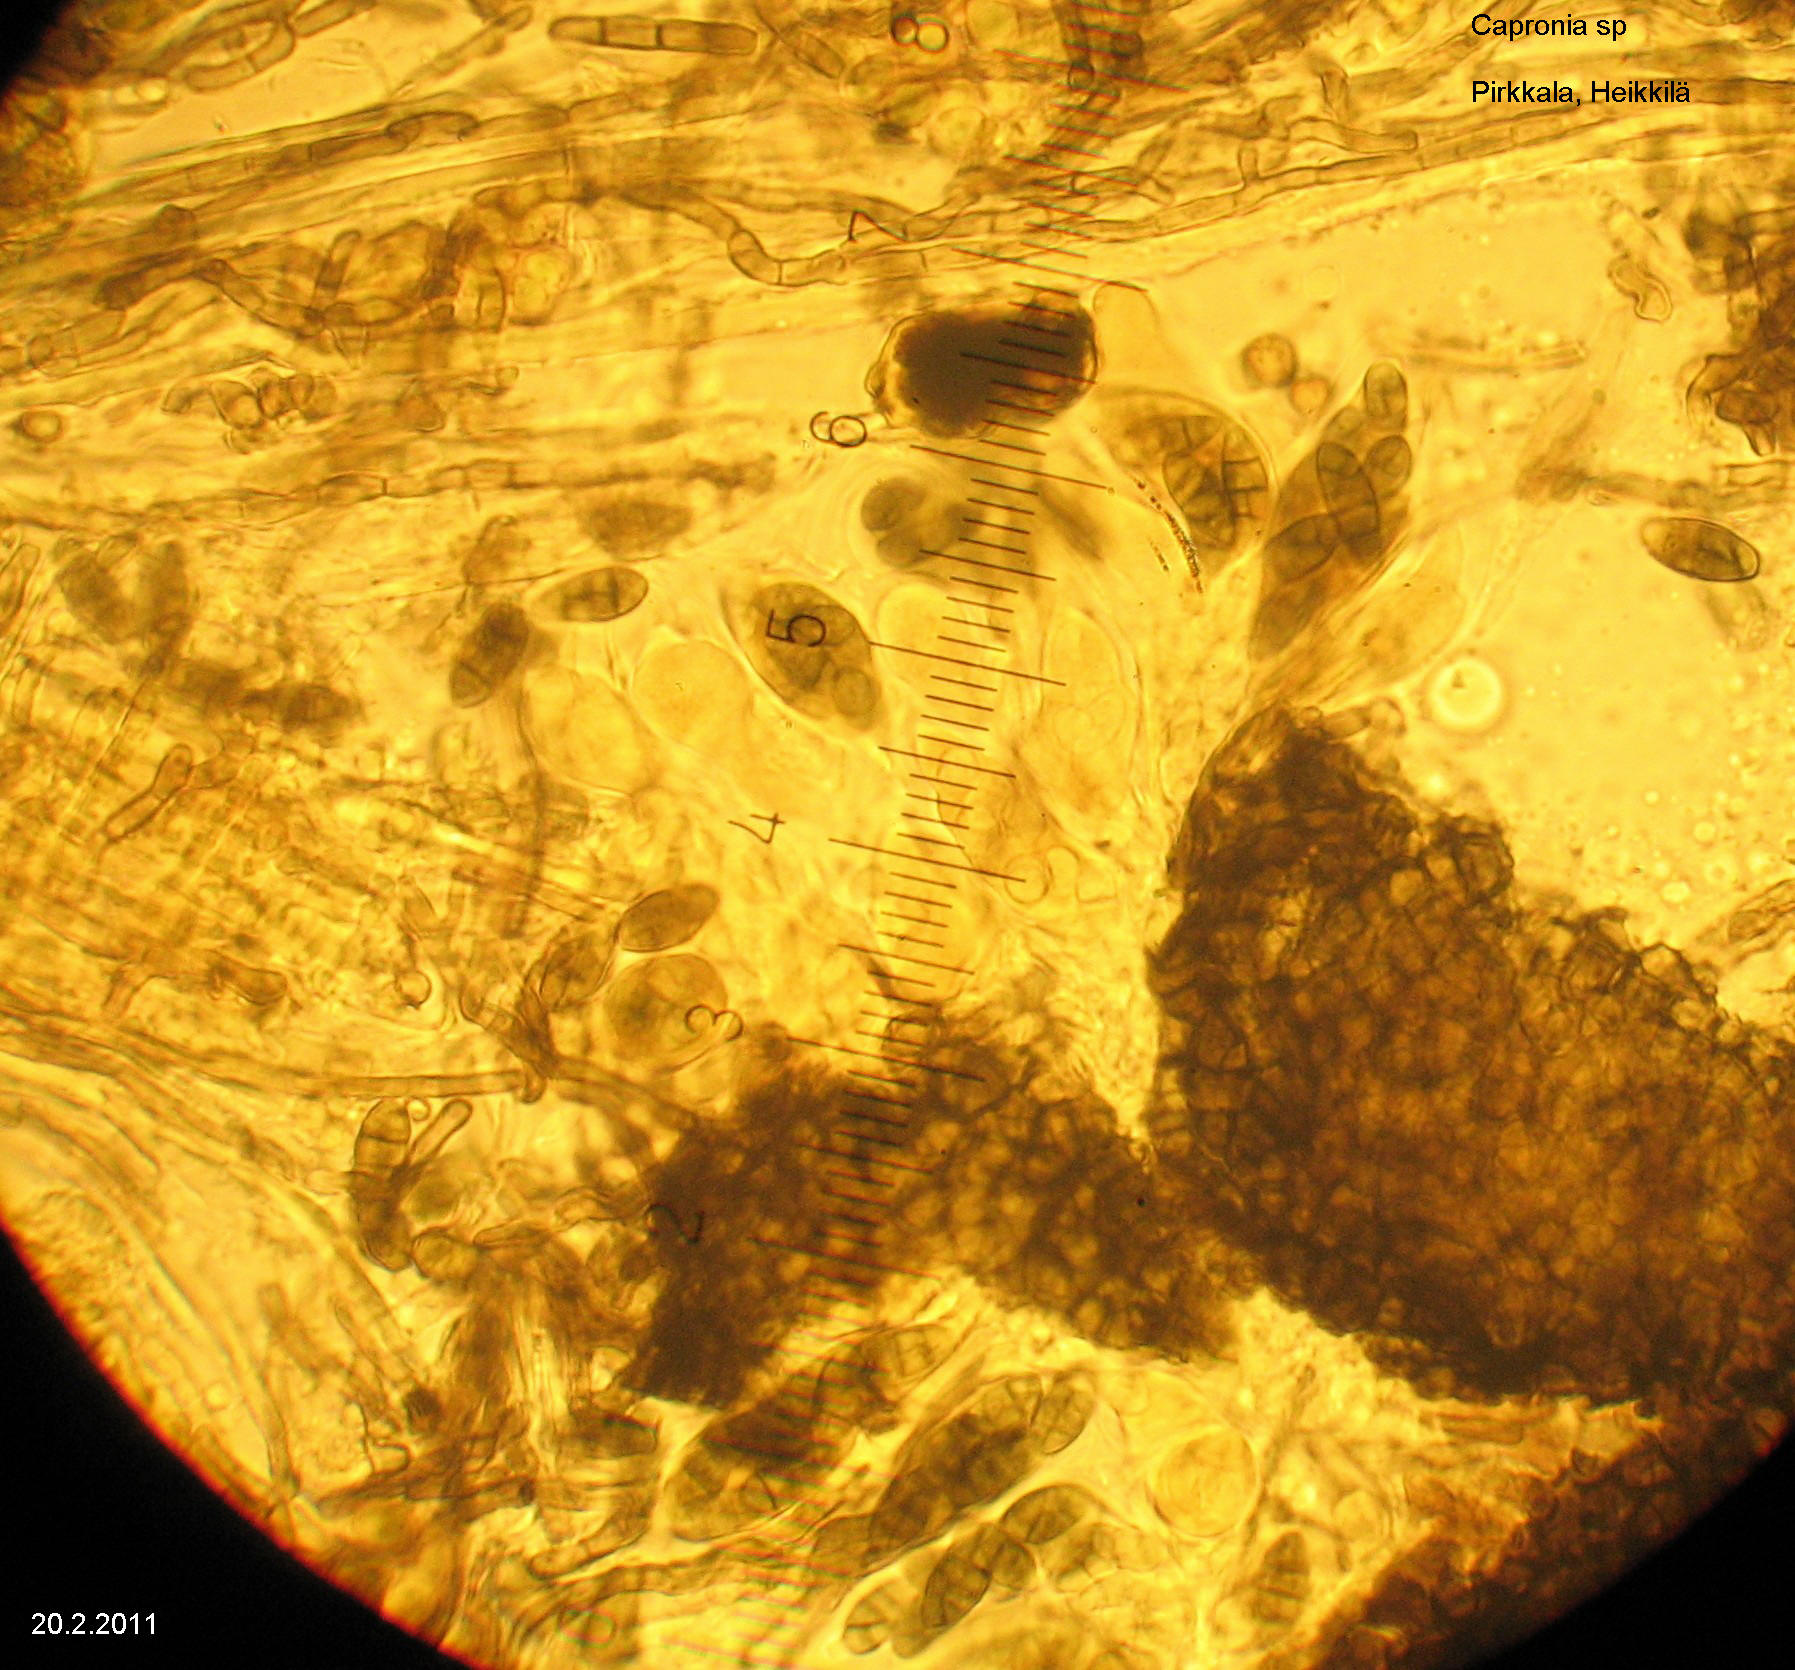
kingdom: Fungi
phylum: Ascomycota
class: Eurotiomycetes
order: Chaetothyriales
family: Herpotrichiellaceae
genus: Capronia
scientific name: Capronia
